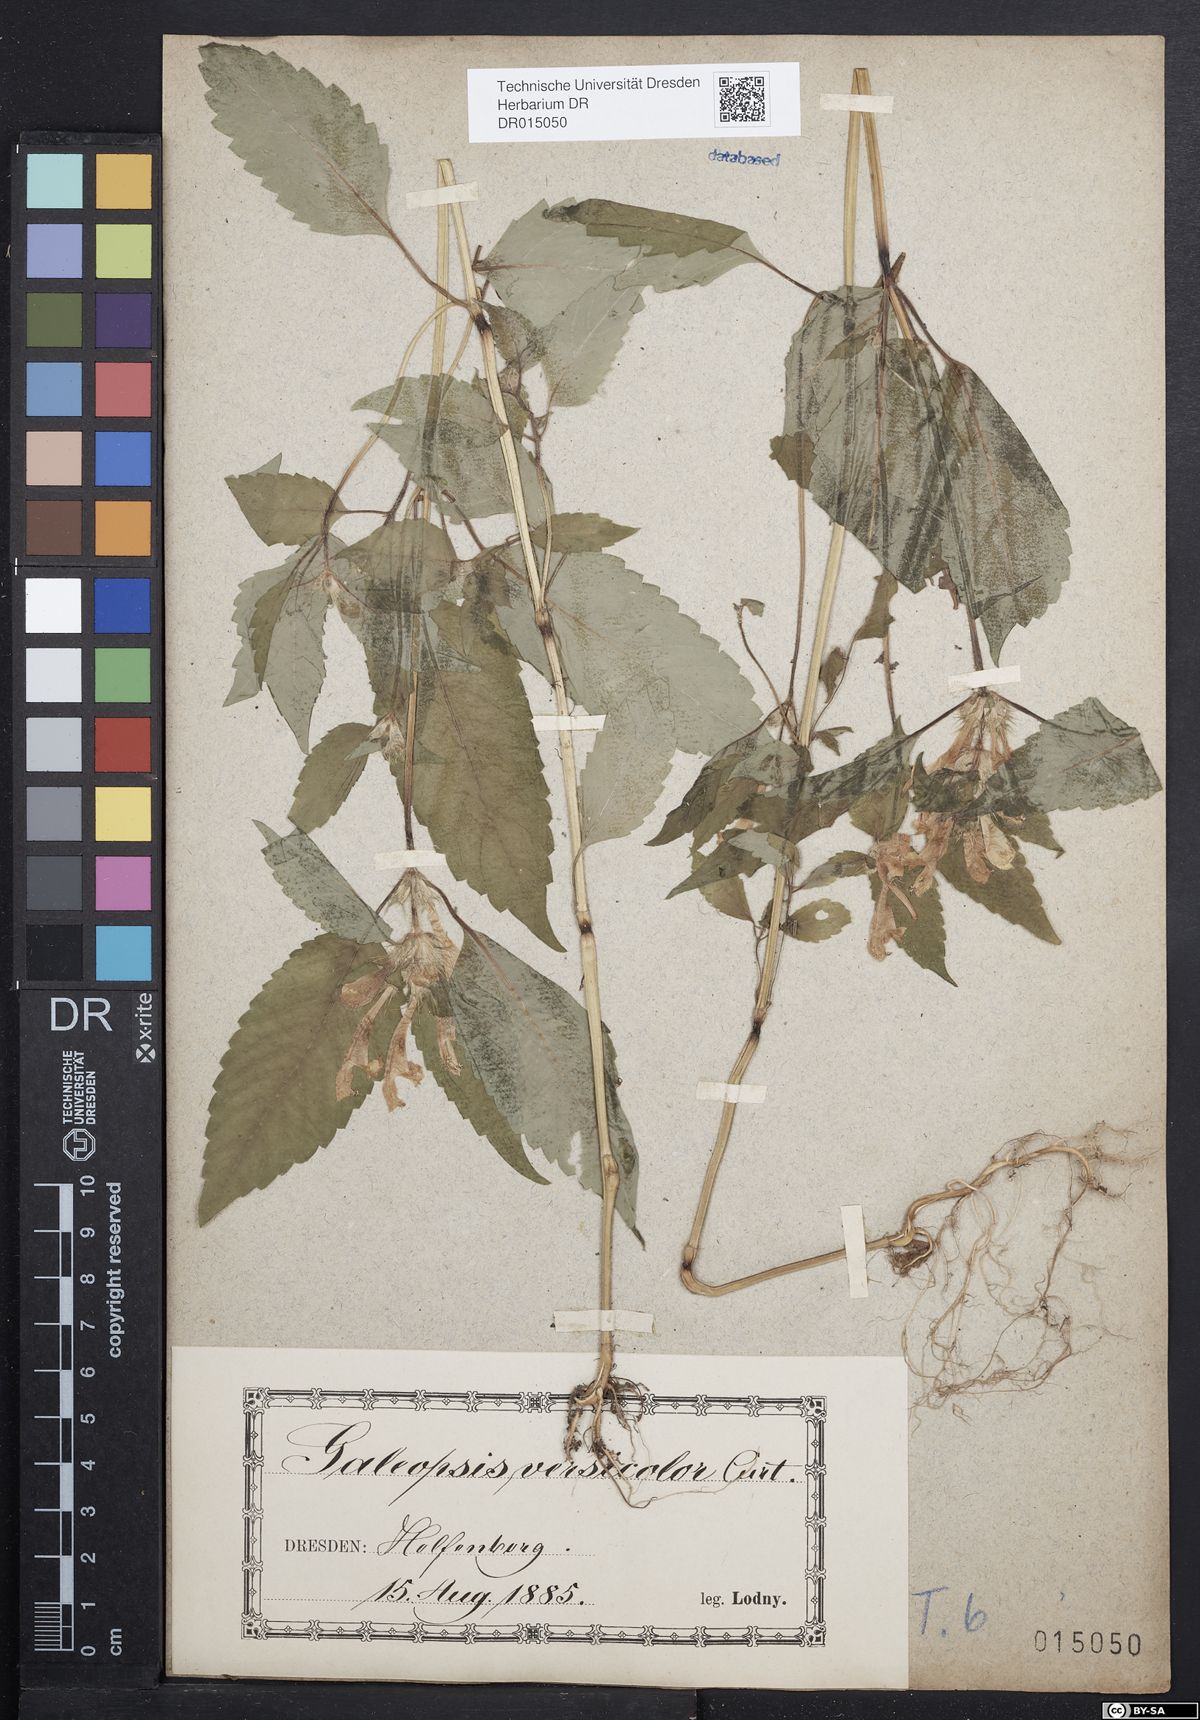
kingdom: Plantae
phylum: Tracheophyta
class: Magnoliopsida
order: Lamiales
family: Lamiaceae
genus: Galeopsis
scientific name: Galeopsis speciosa
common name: Large-flowered hemp-nettle
